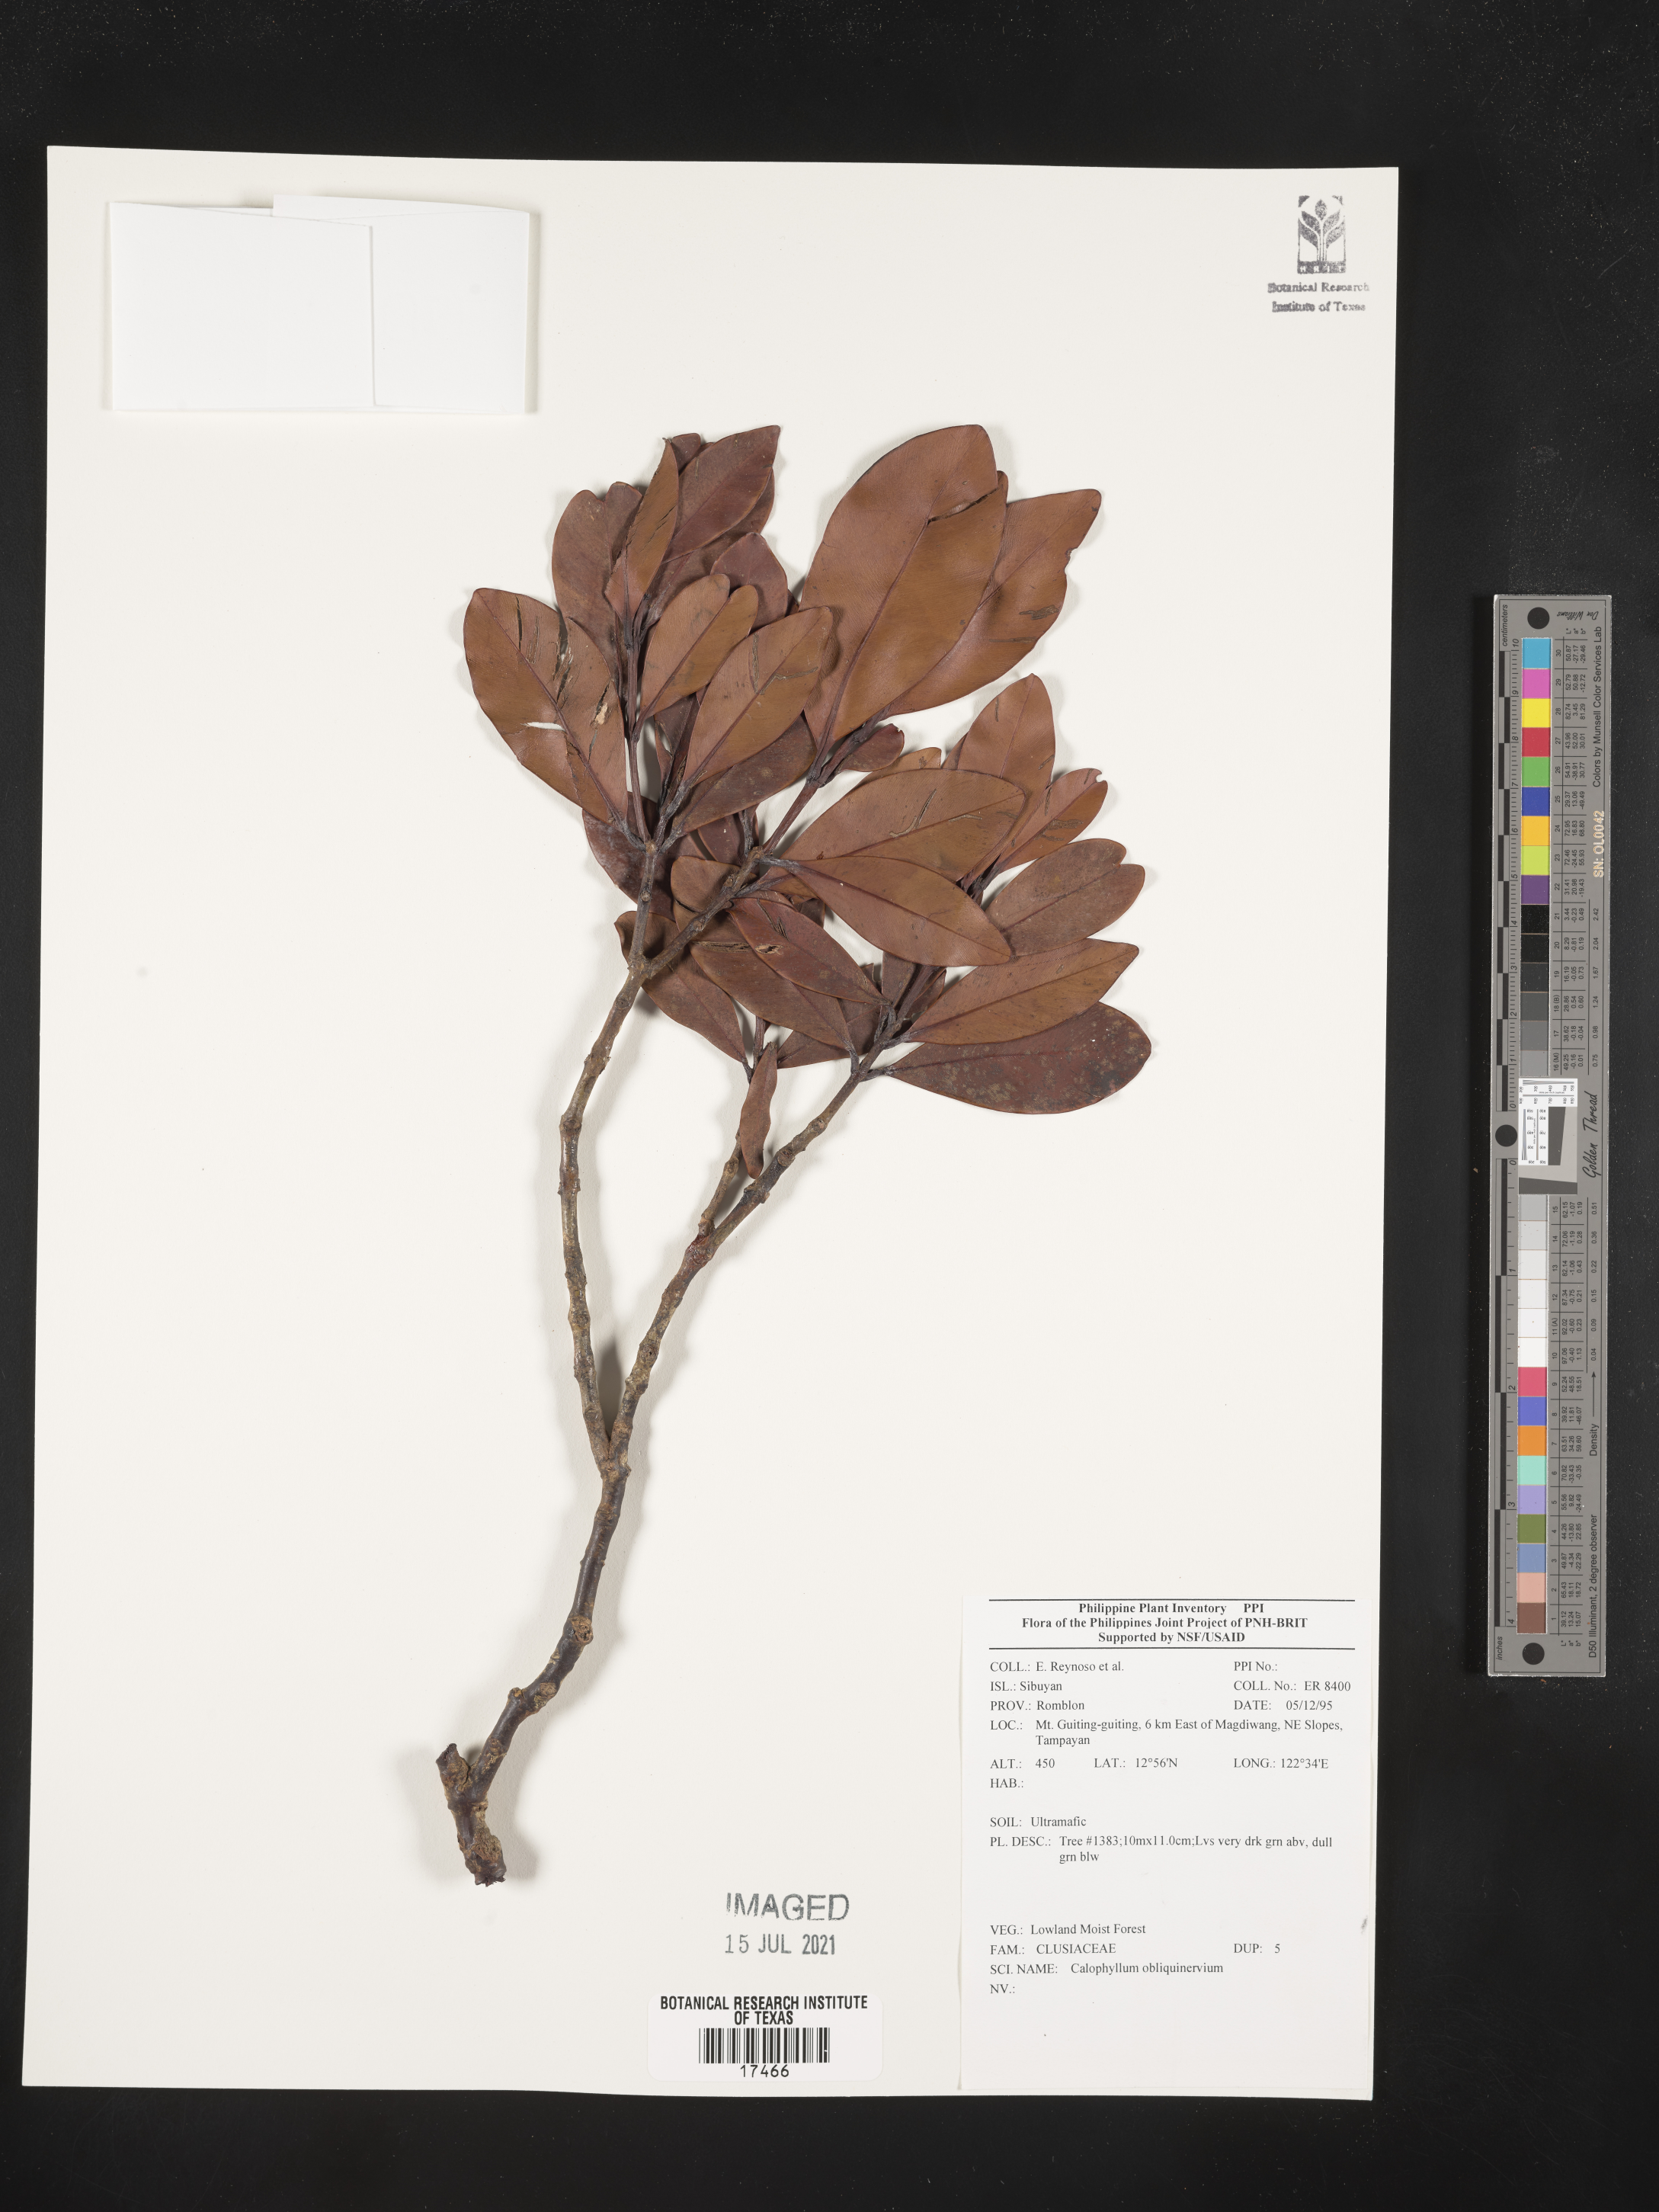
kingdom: Plantae
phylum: Tracheophyta
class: Magnoliopsida
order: Malpighiales
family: Calophyllaceae
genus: Calophyllum
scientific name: Calophyllum obliquinervium
